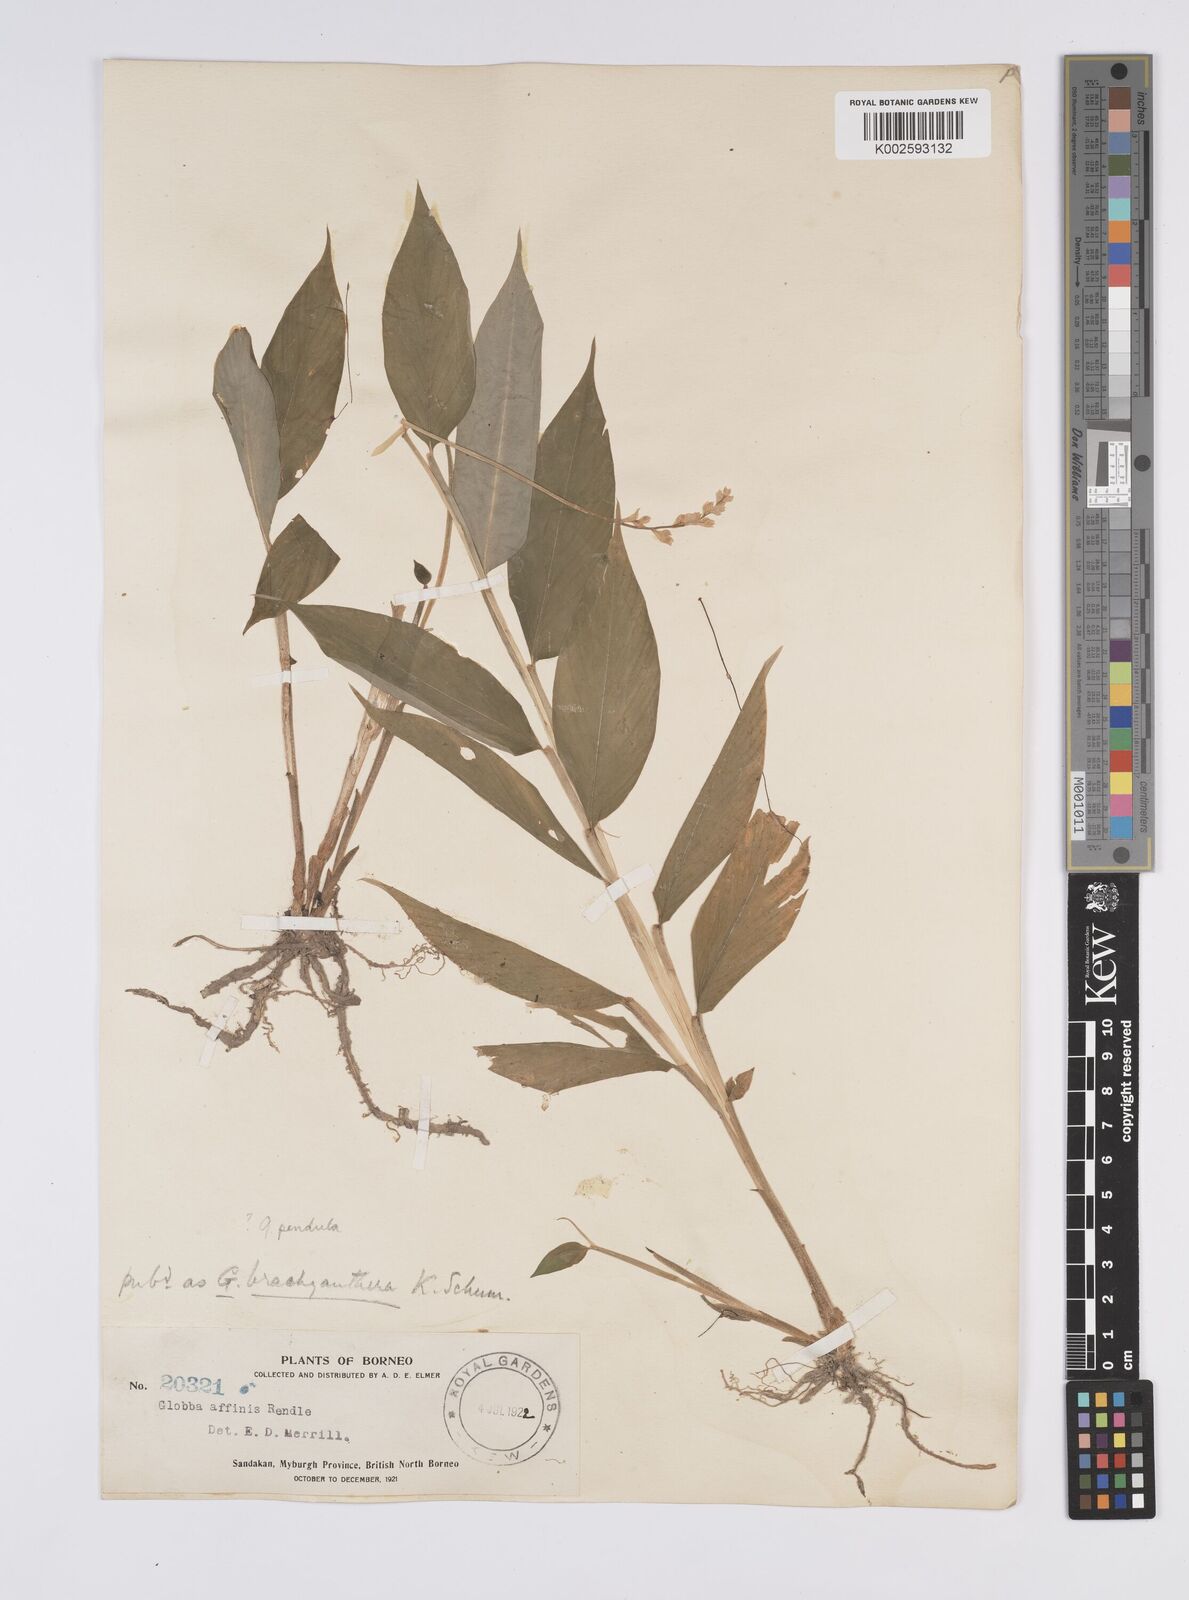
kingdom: Plantae
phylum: Tracheophyta
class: Liliopsida
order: Zingiberales
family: Zingiberaceae
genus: Globba
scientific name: Globba pendula
